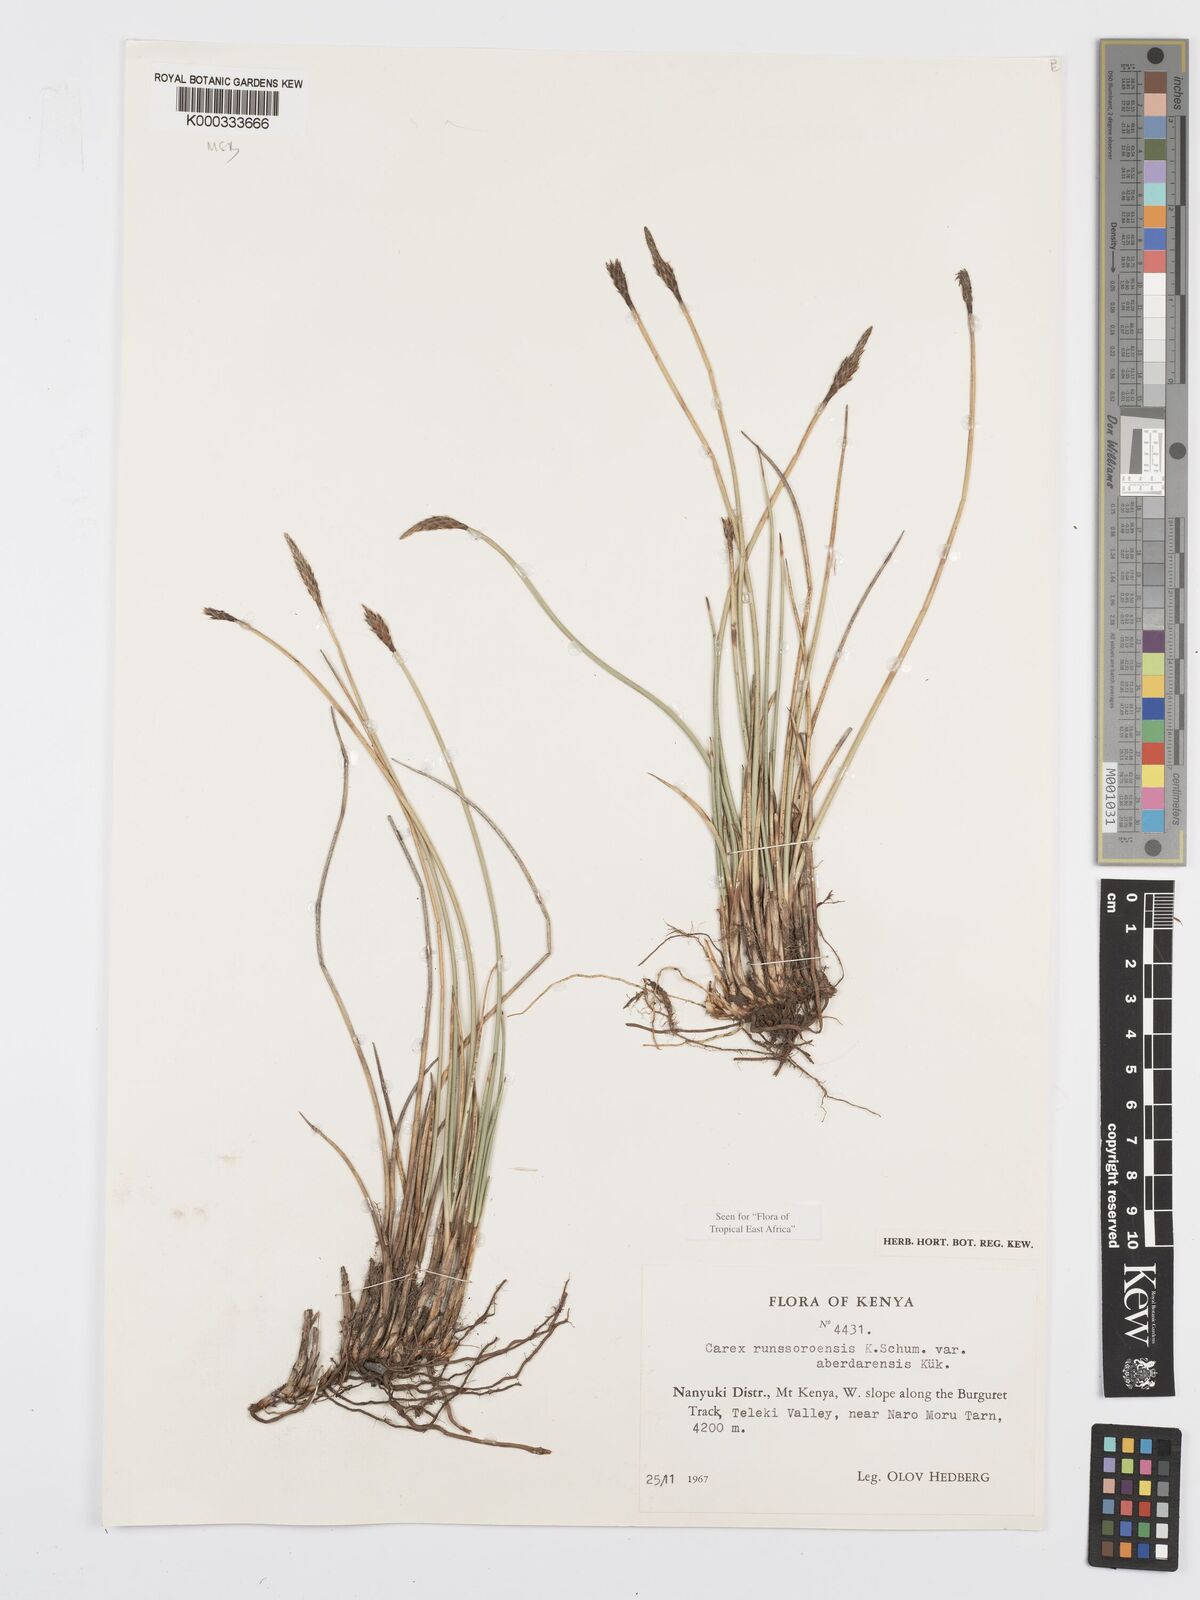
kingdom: Plantae
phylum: Tracheophyta
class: Liliopsida
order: Poales
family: Cyperaceae
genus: Carex
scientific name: Carex runssoroensis
